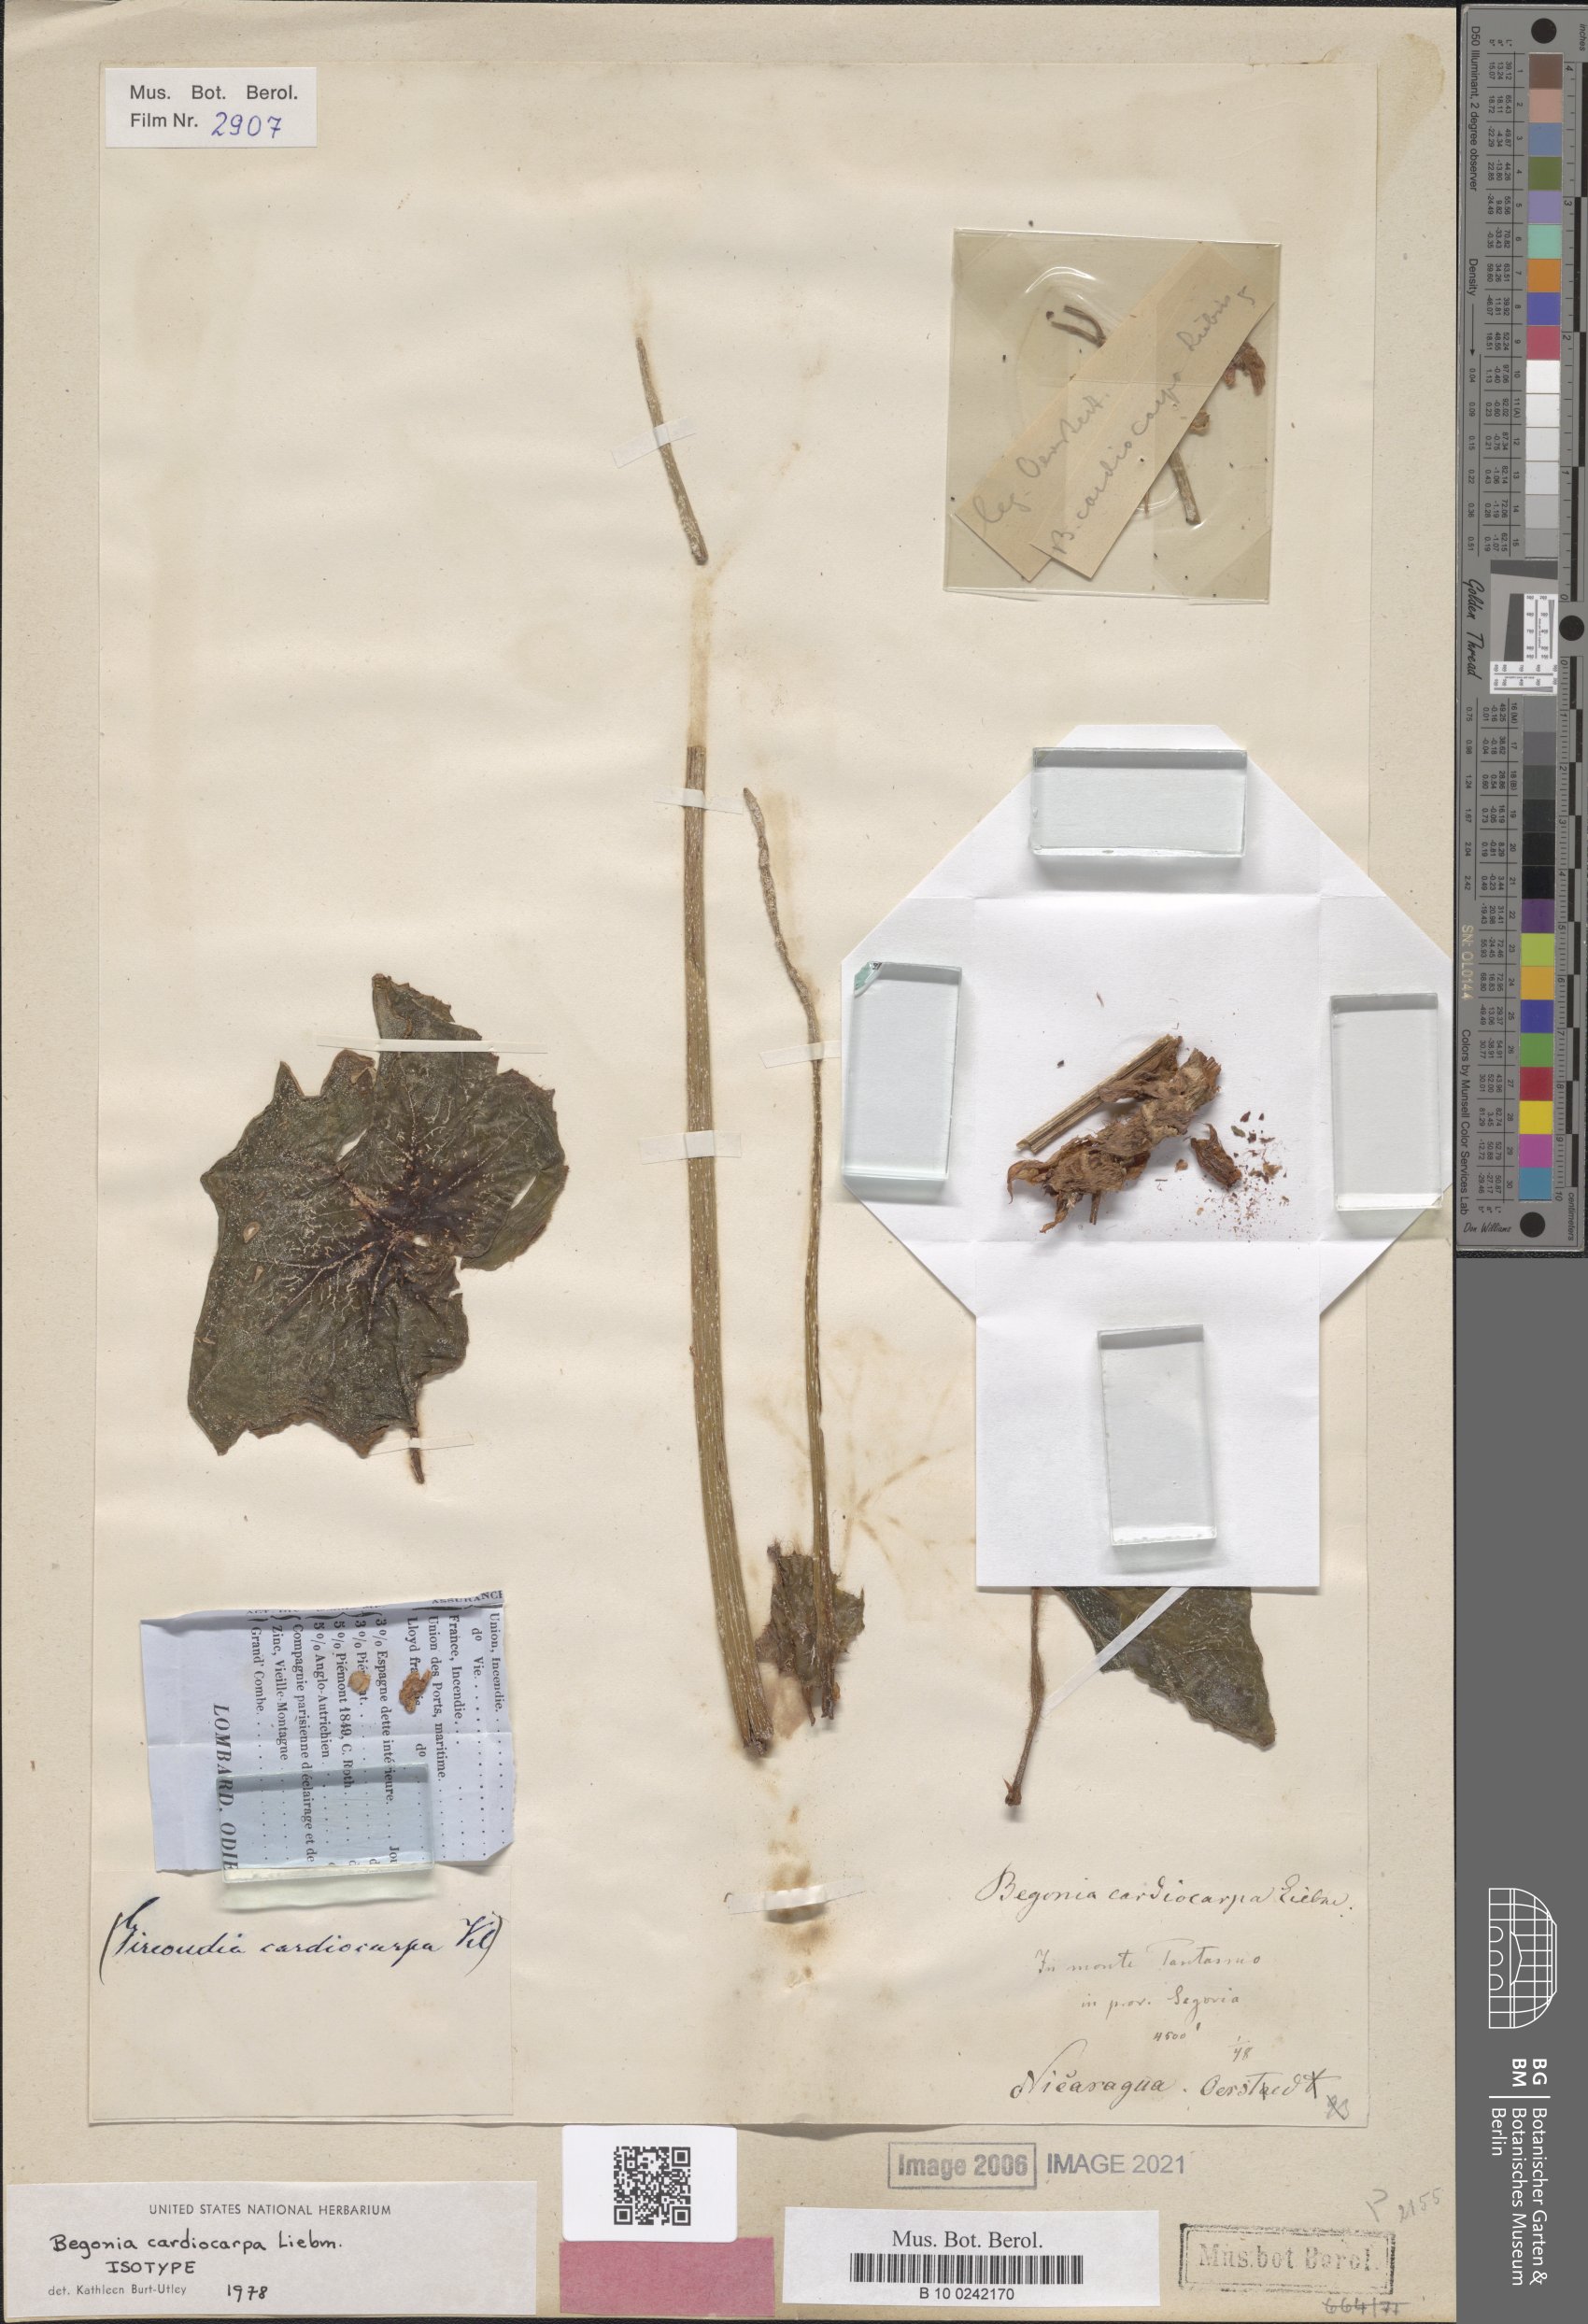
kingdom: Plantae
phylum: Tracheophyta
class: Magnoliopsida
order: Cucurbitales
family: Begoniaceae
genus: Begonia
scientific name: Begonia cardiocarpa
